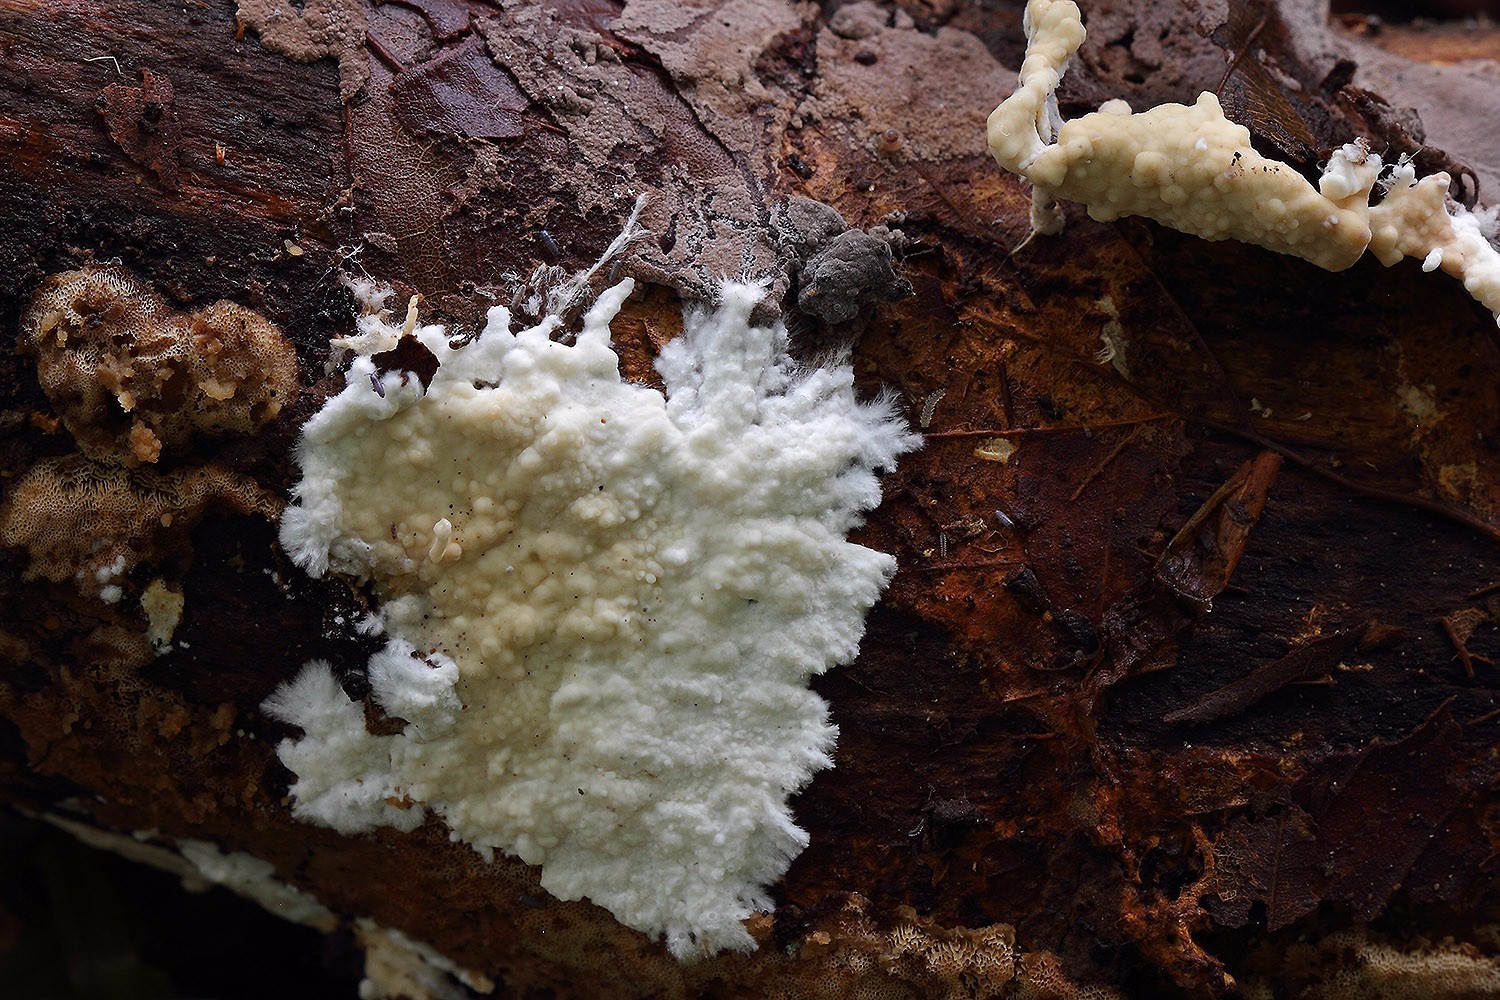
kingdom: Fungi
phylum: Basidiomycota
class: Agaricomycetes
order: Polyporales
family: Phanerochaetaceae
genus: Phanerochaete
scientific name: Phanerochaete velutina
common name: dunet randtråd
